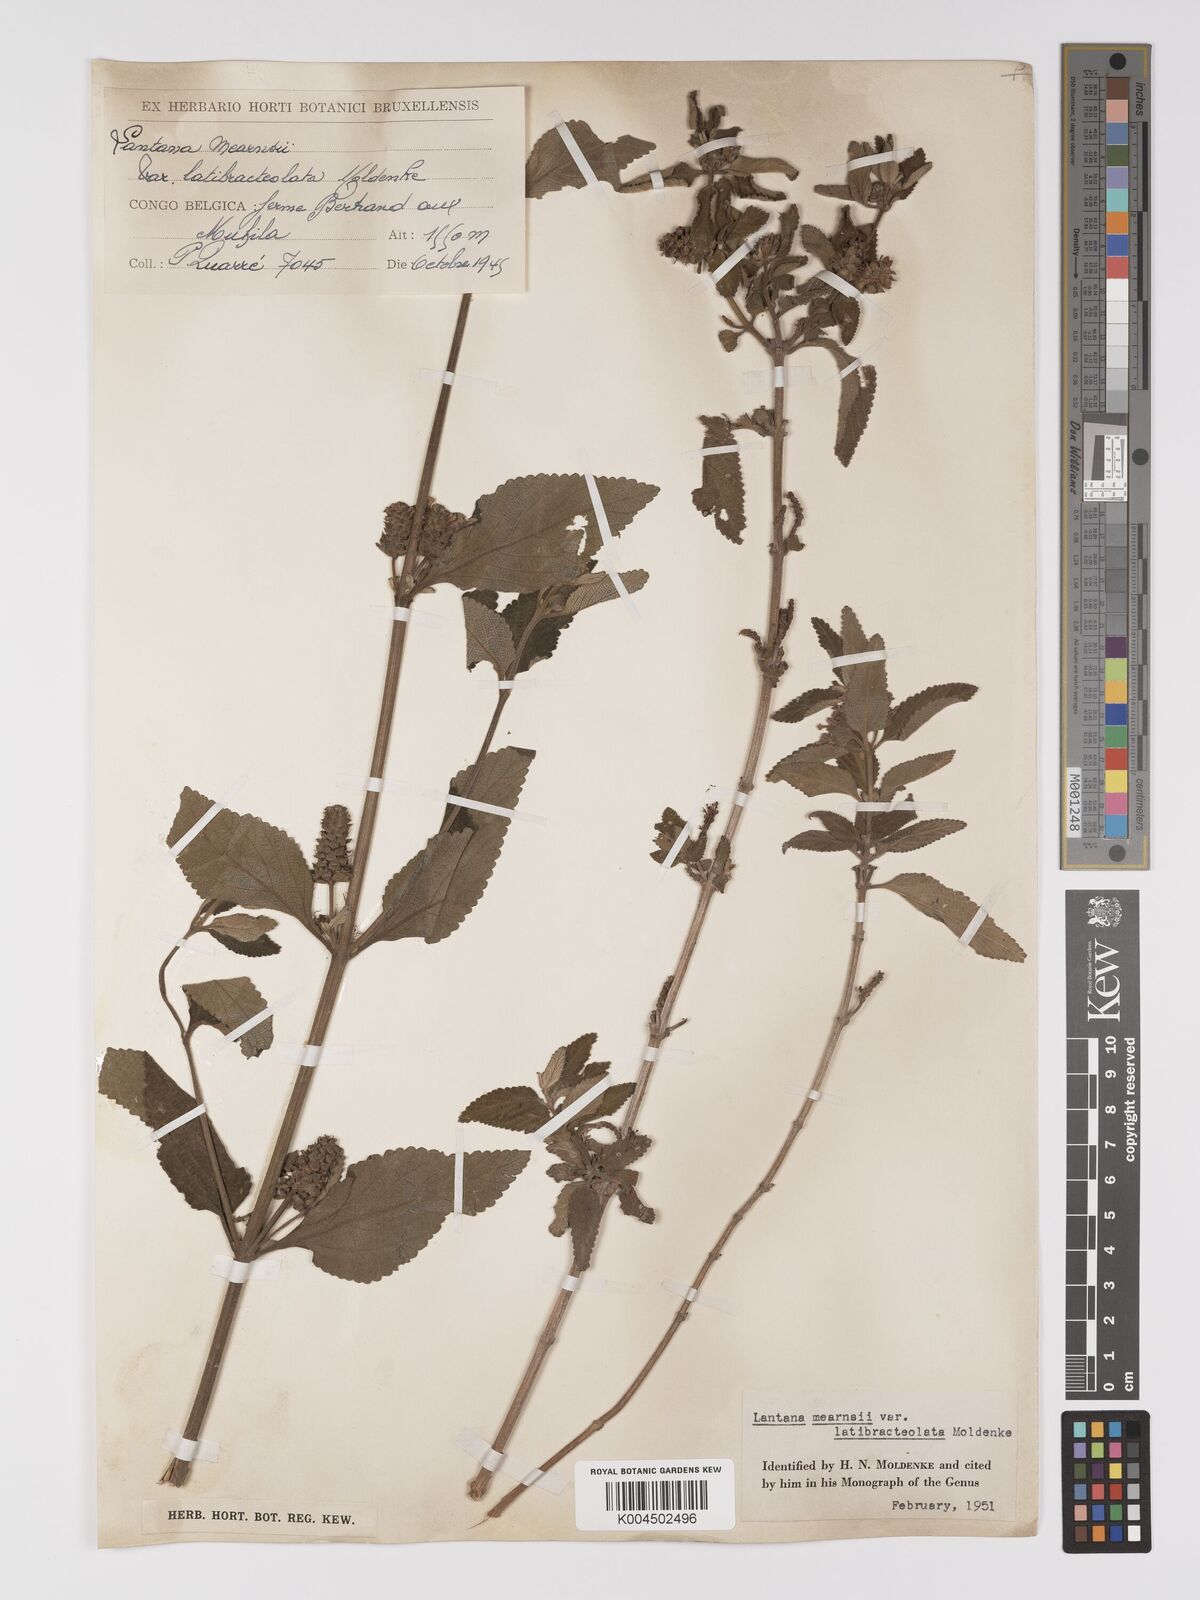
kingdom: Plantae
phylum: Tracheophyta
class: Magnoliopsida
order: Lamiales
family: Verbenaceae
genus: Lantana
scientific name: Lantana ukambensis
